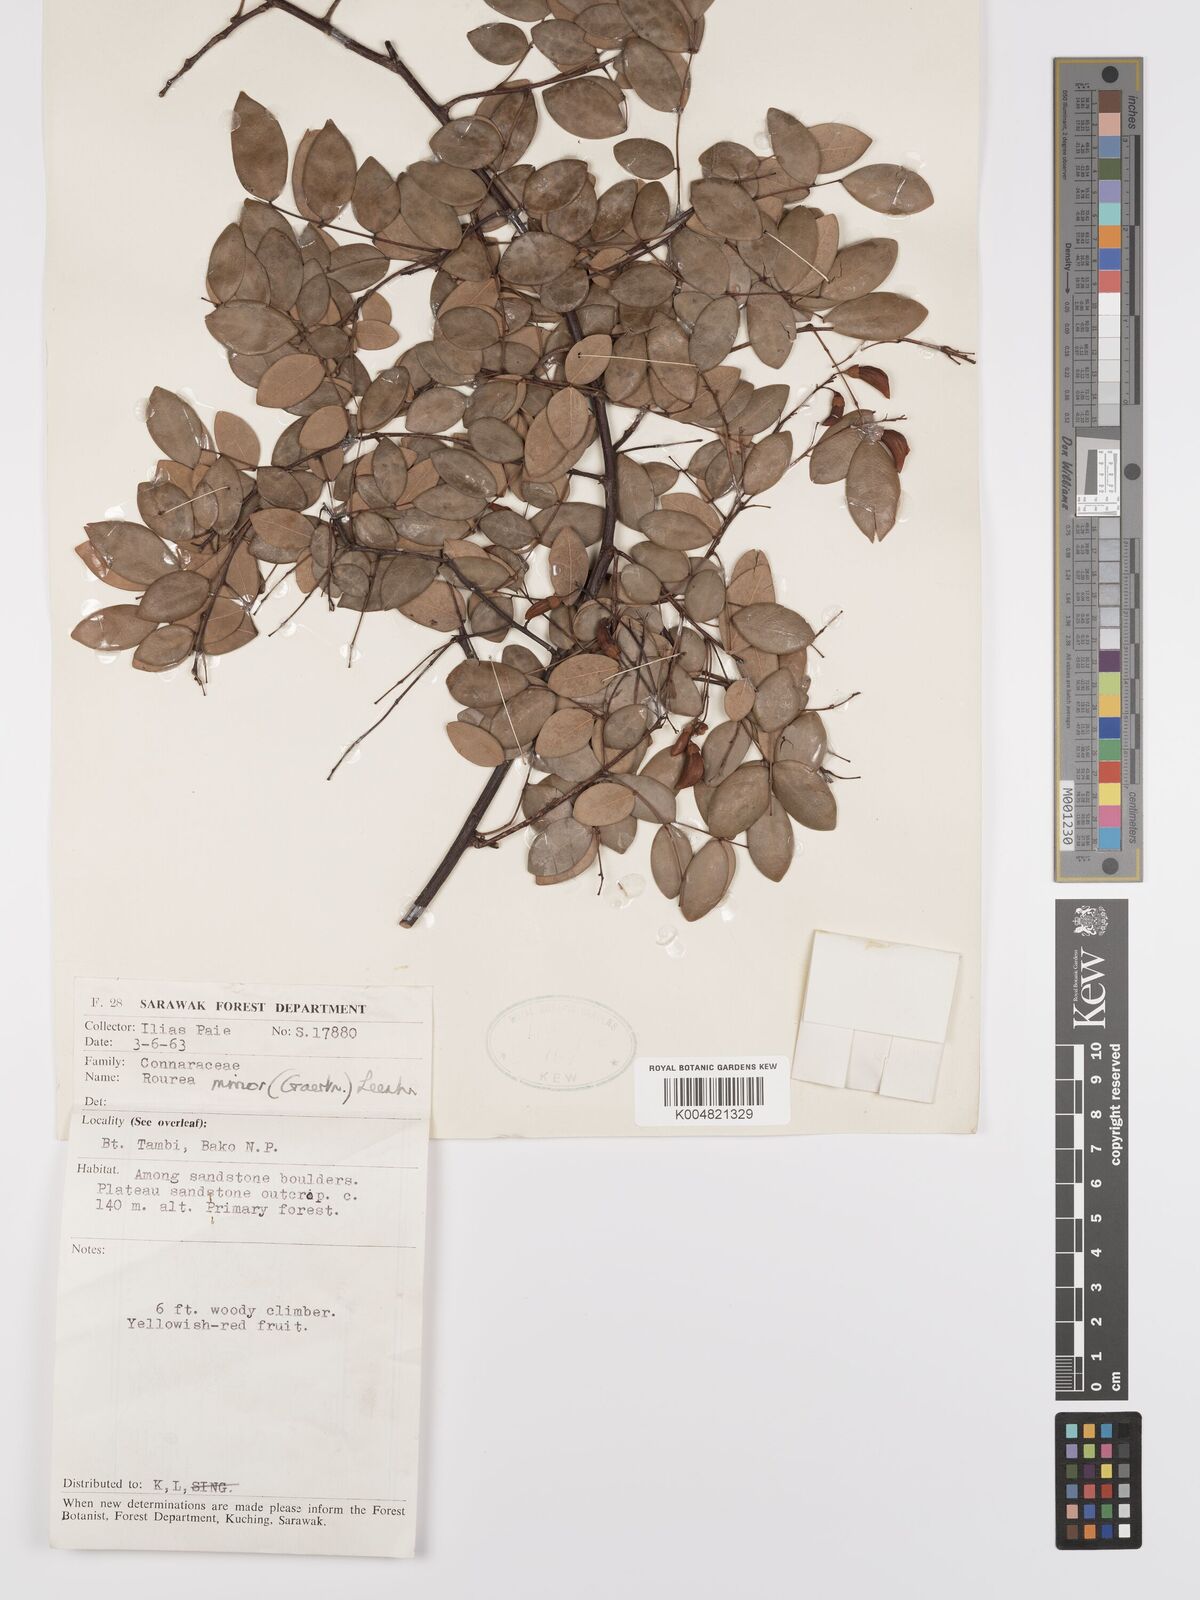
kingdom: Plantae
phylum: Tracheophyta
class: Magnoliopsida
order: Oxalidales
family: Connaraceae
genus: Rourea
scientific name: Rourea minor
